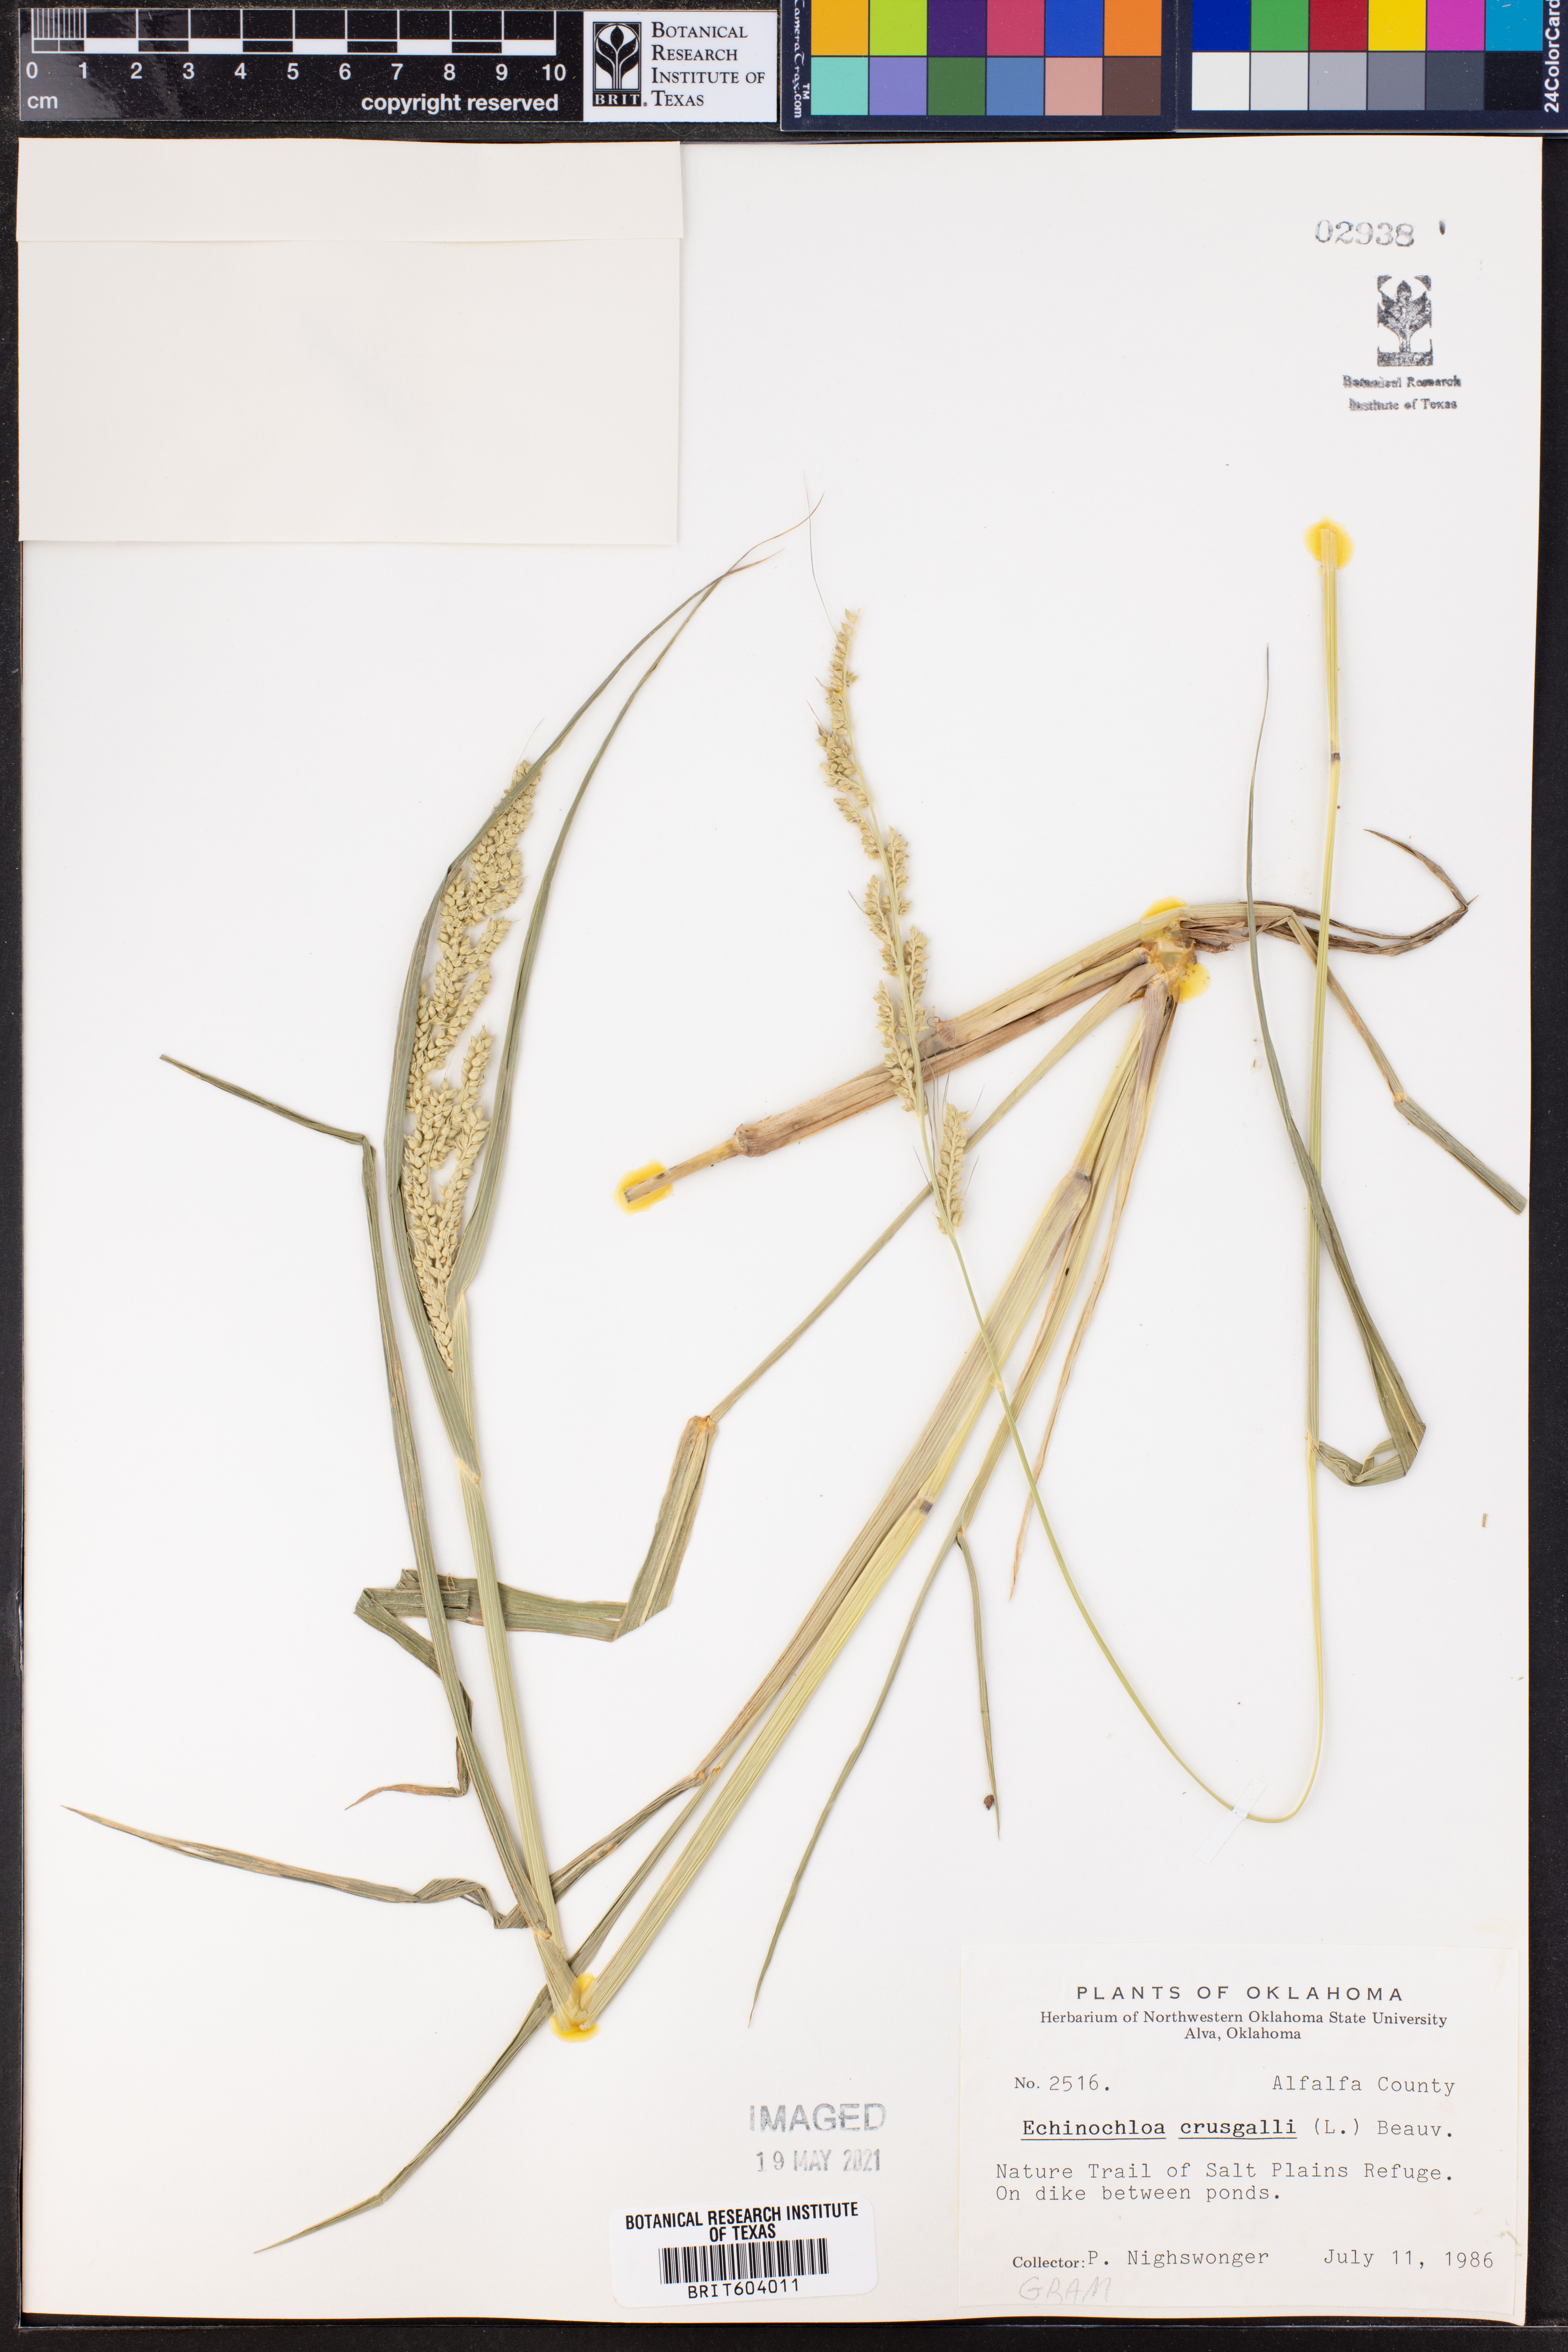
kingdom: Plantae
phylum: Tracheophyta
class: Liliopsida
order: Poales
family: Poaceae
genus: Echinochloa
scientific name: Echinochloa
